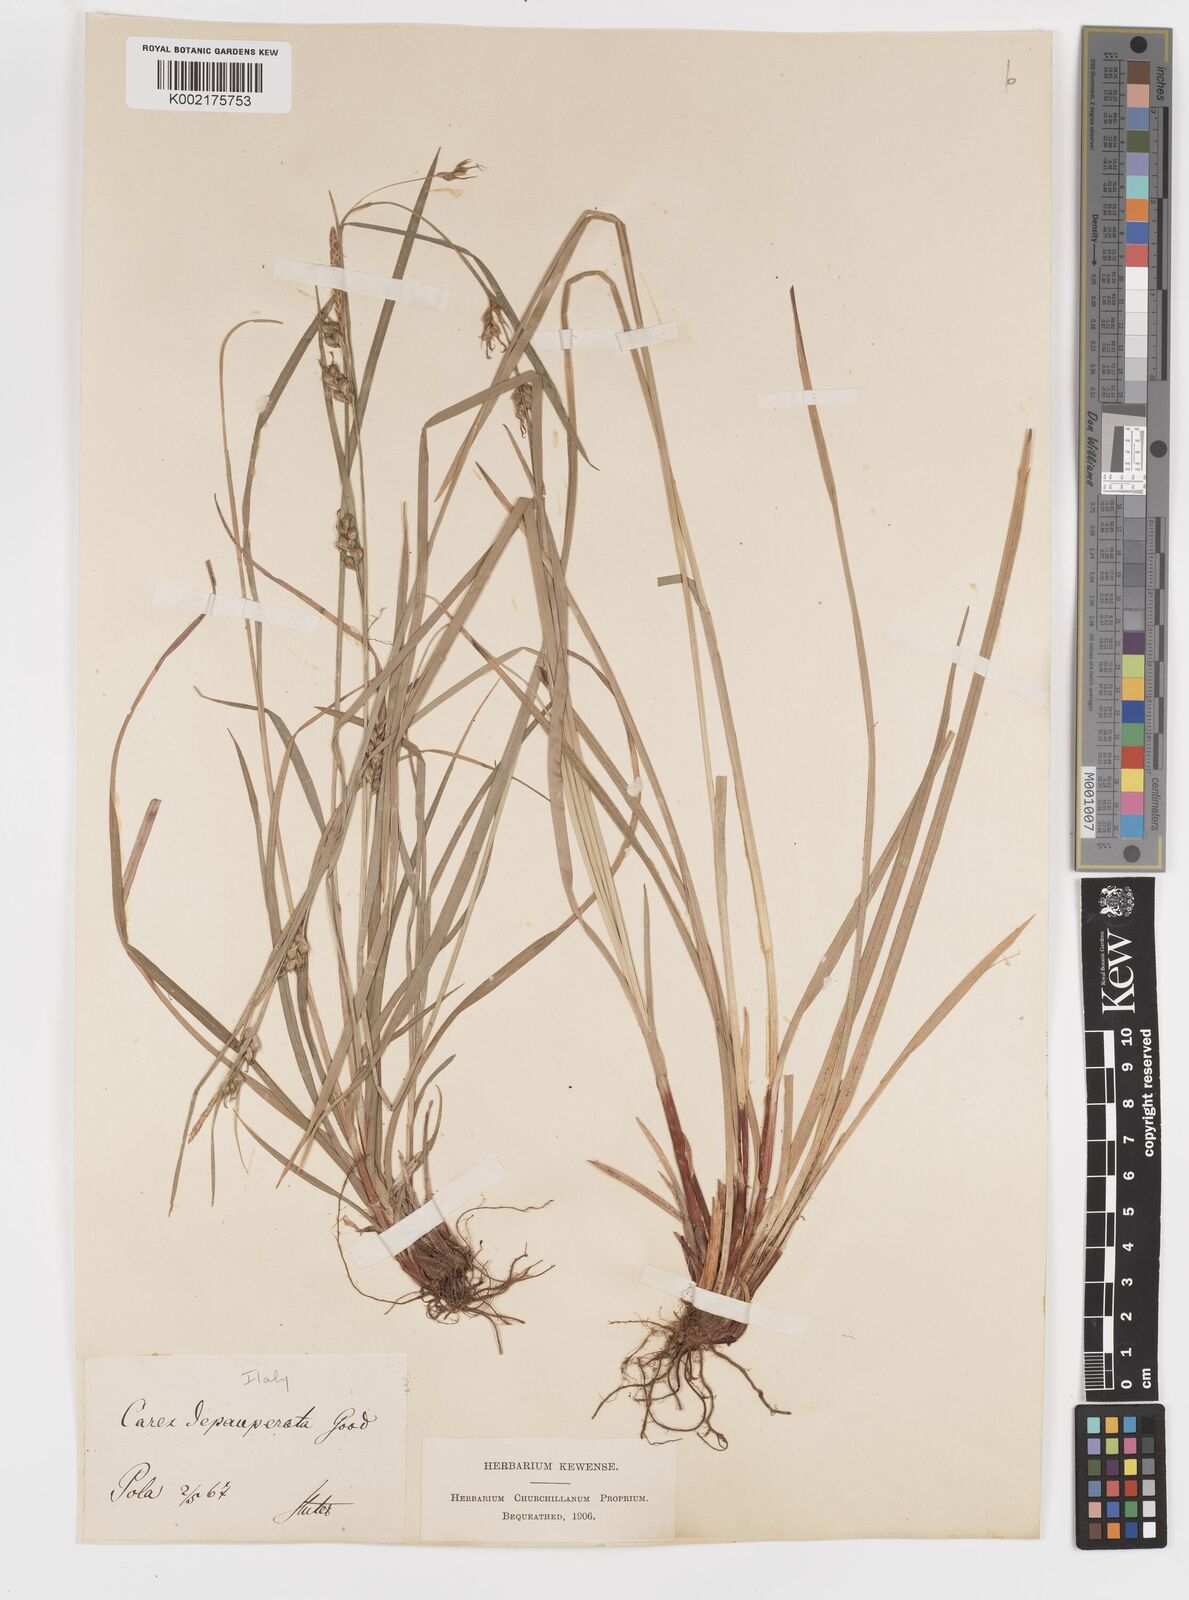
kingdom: Plantae
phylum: Tracheophyta
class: Liliopsida
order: Poales
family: Cyperaceae
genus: Carex
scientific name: Carex
